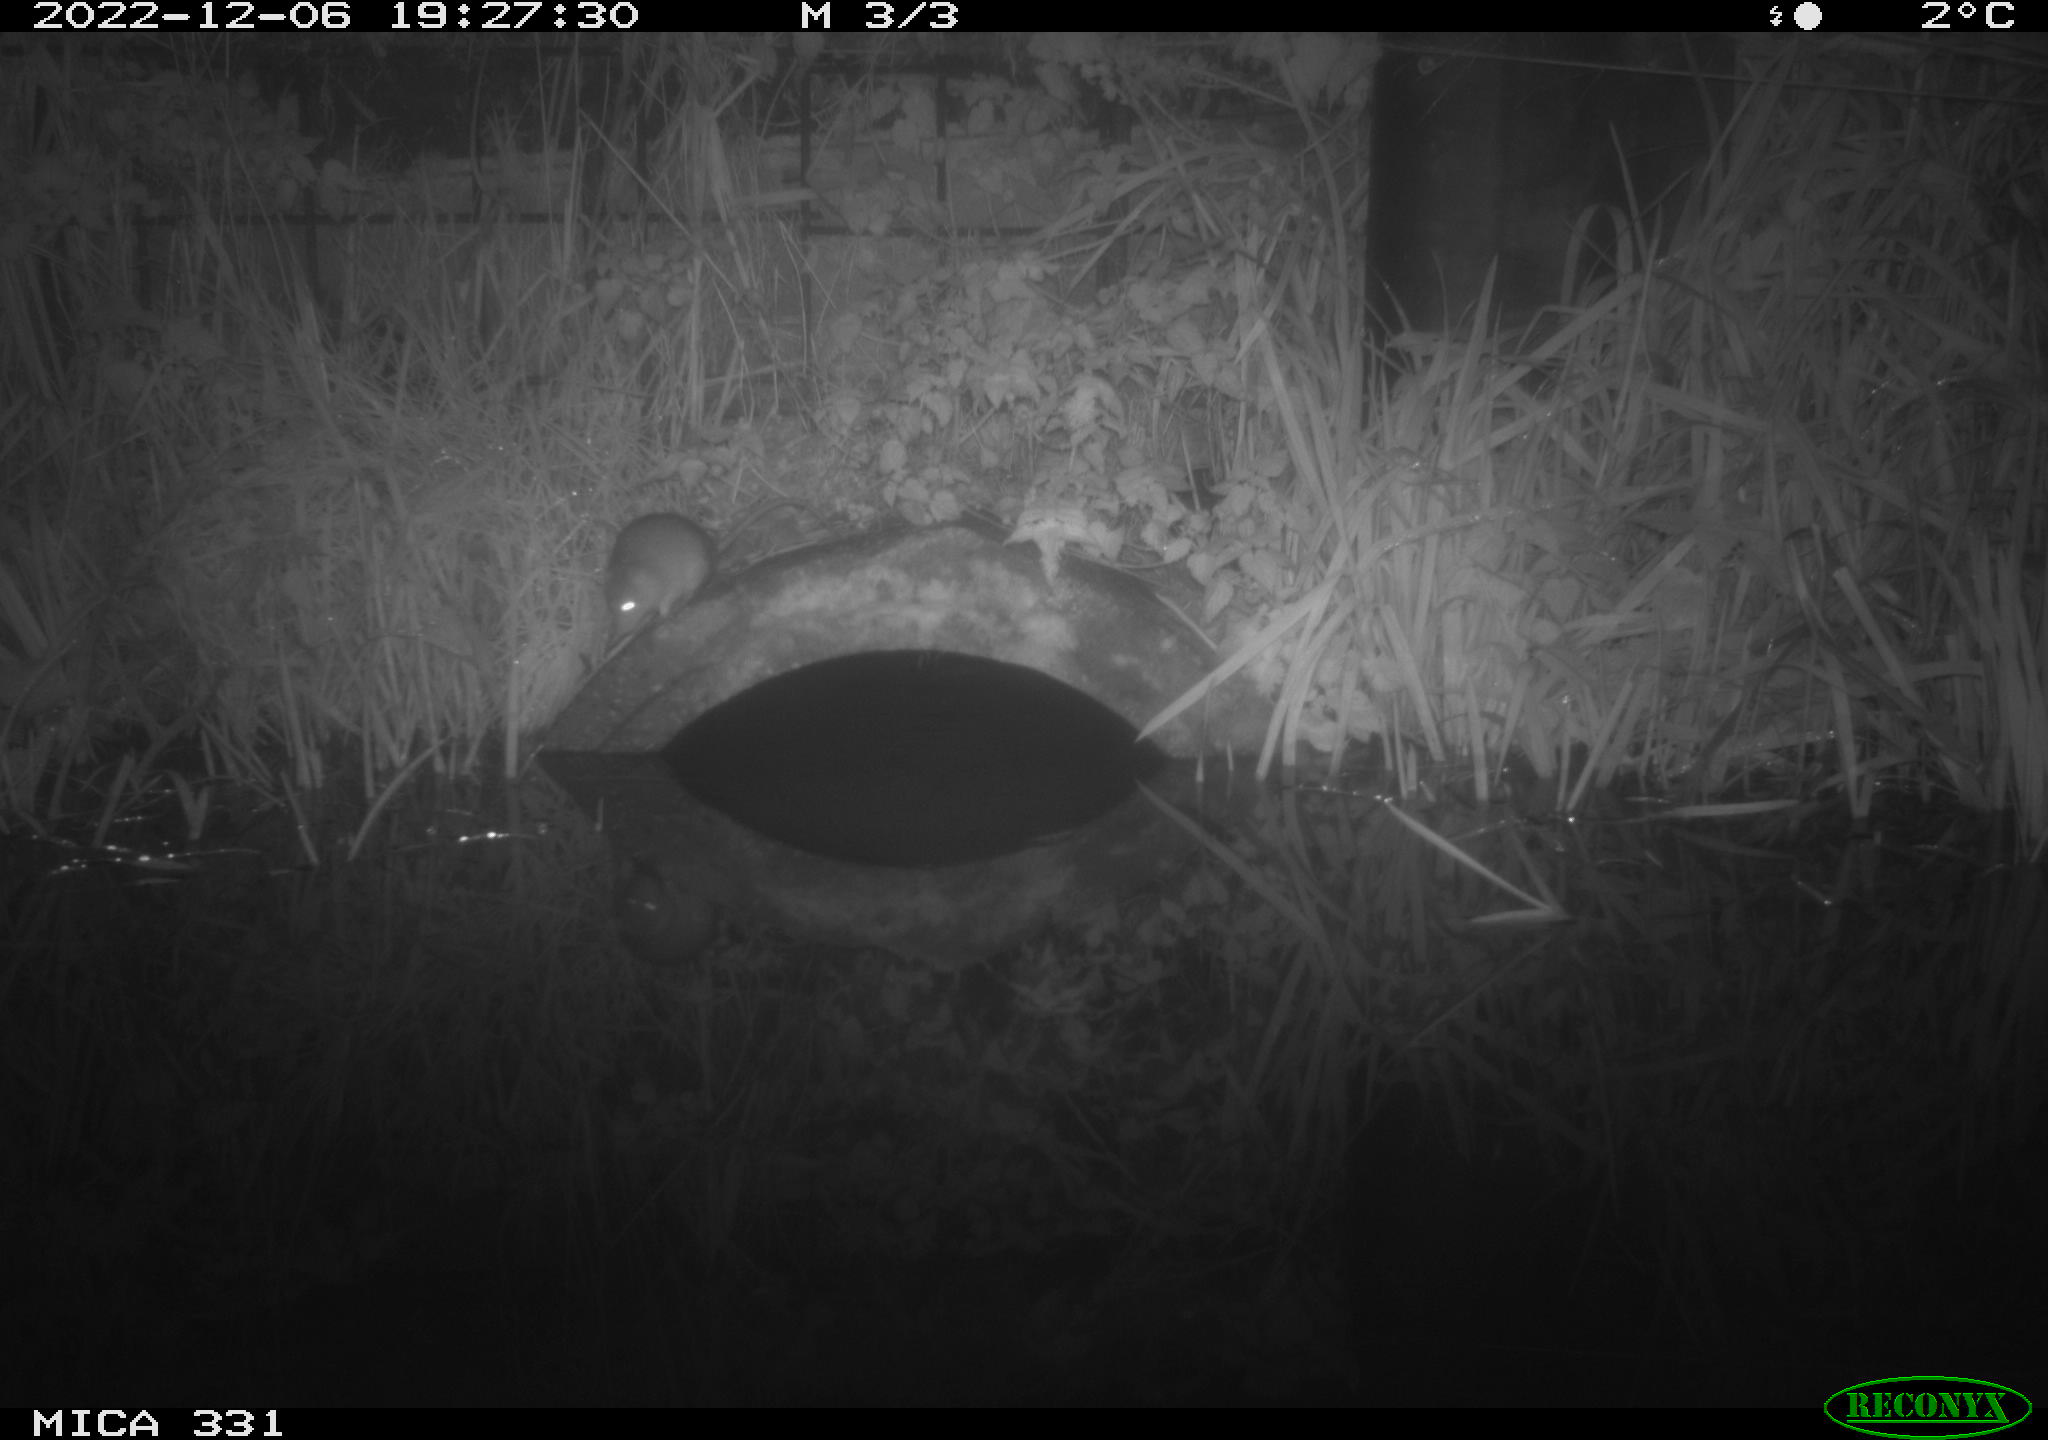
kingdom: Animalia
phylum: Chordata
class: Mammalia
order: Rodentia
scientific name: Rodentia
